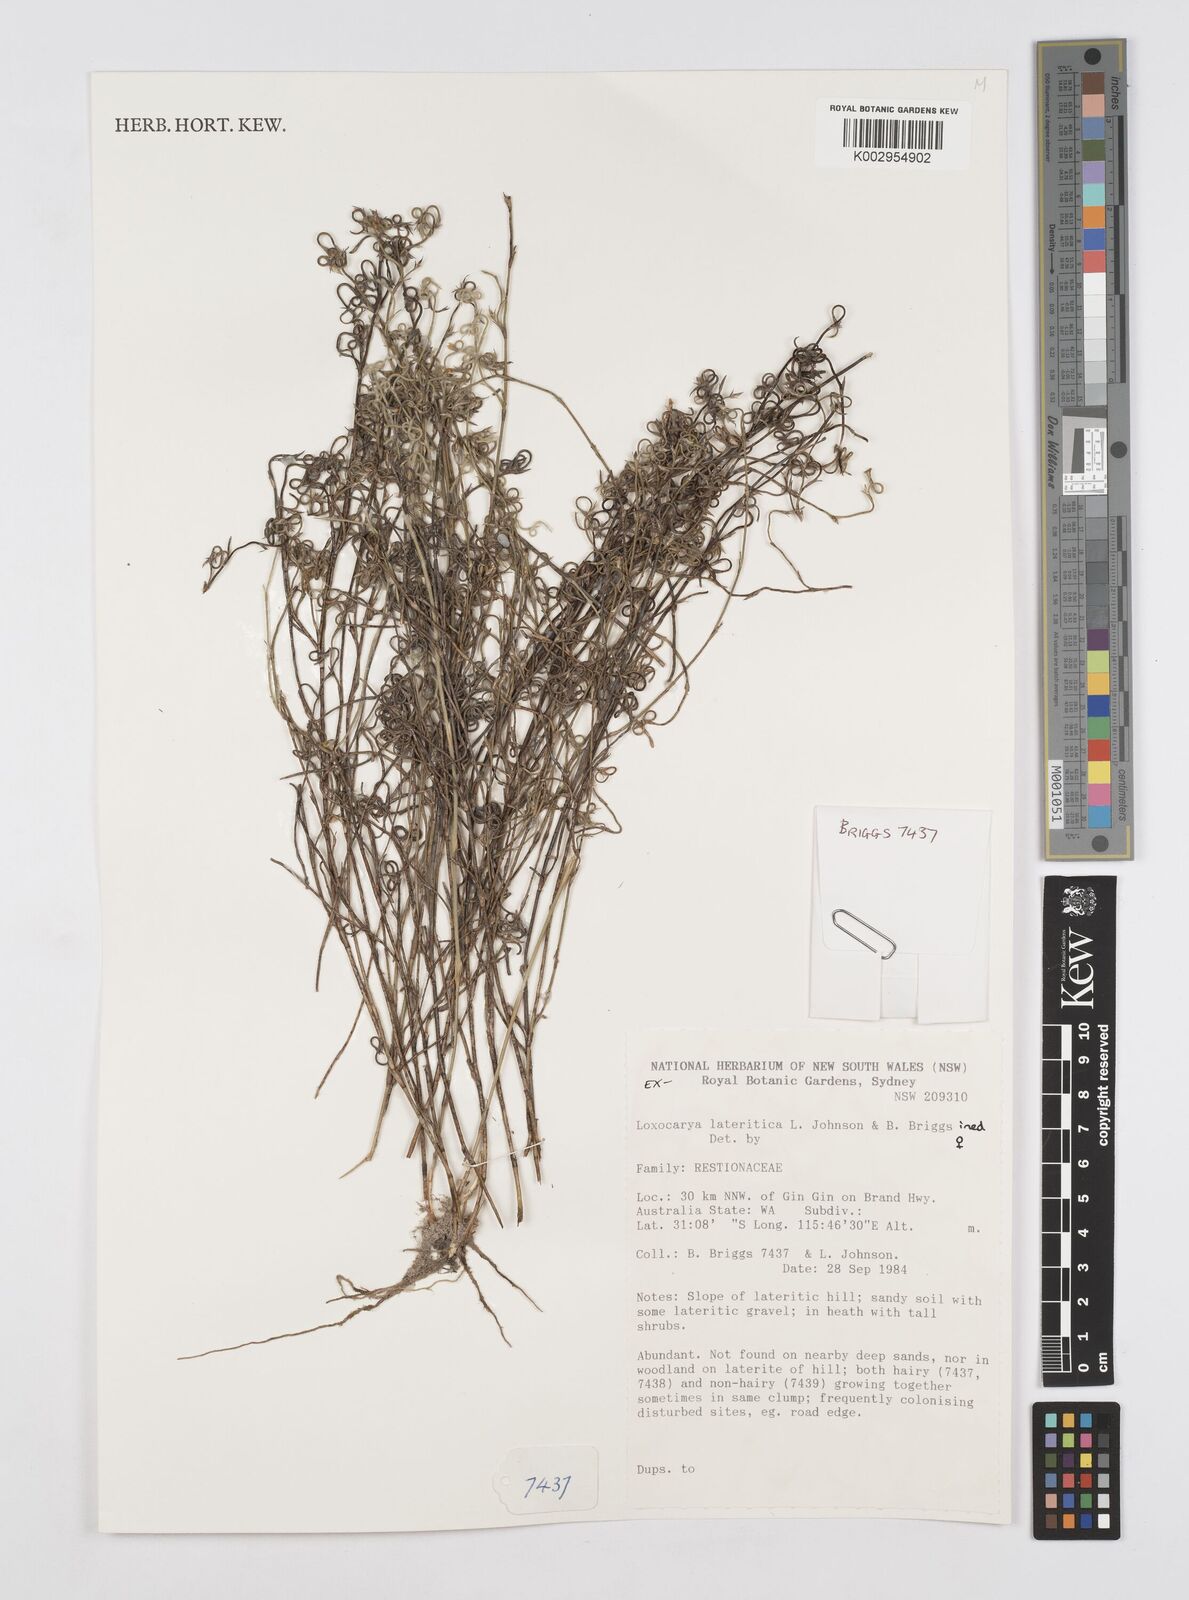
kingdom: Plantae
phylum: Tracheophyta
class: Liliopsida
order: Poales
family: Restionaceae
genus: Desmocladus
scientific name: Desmocladus lateriticus
